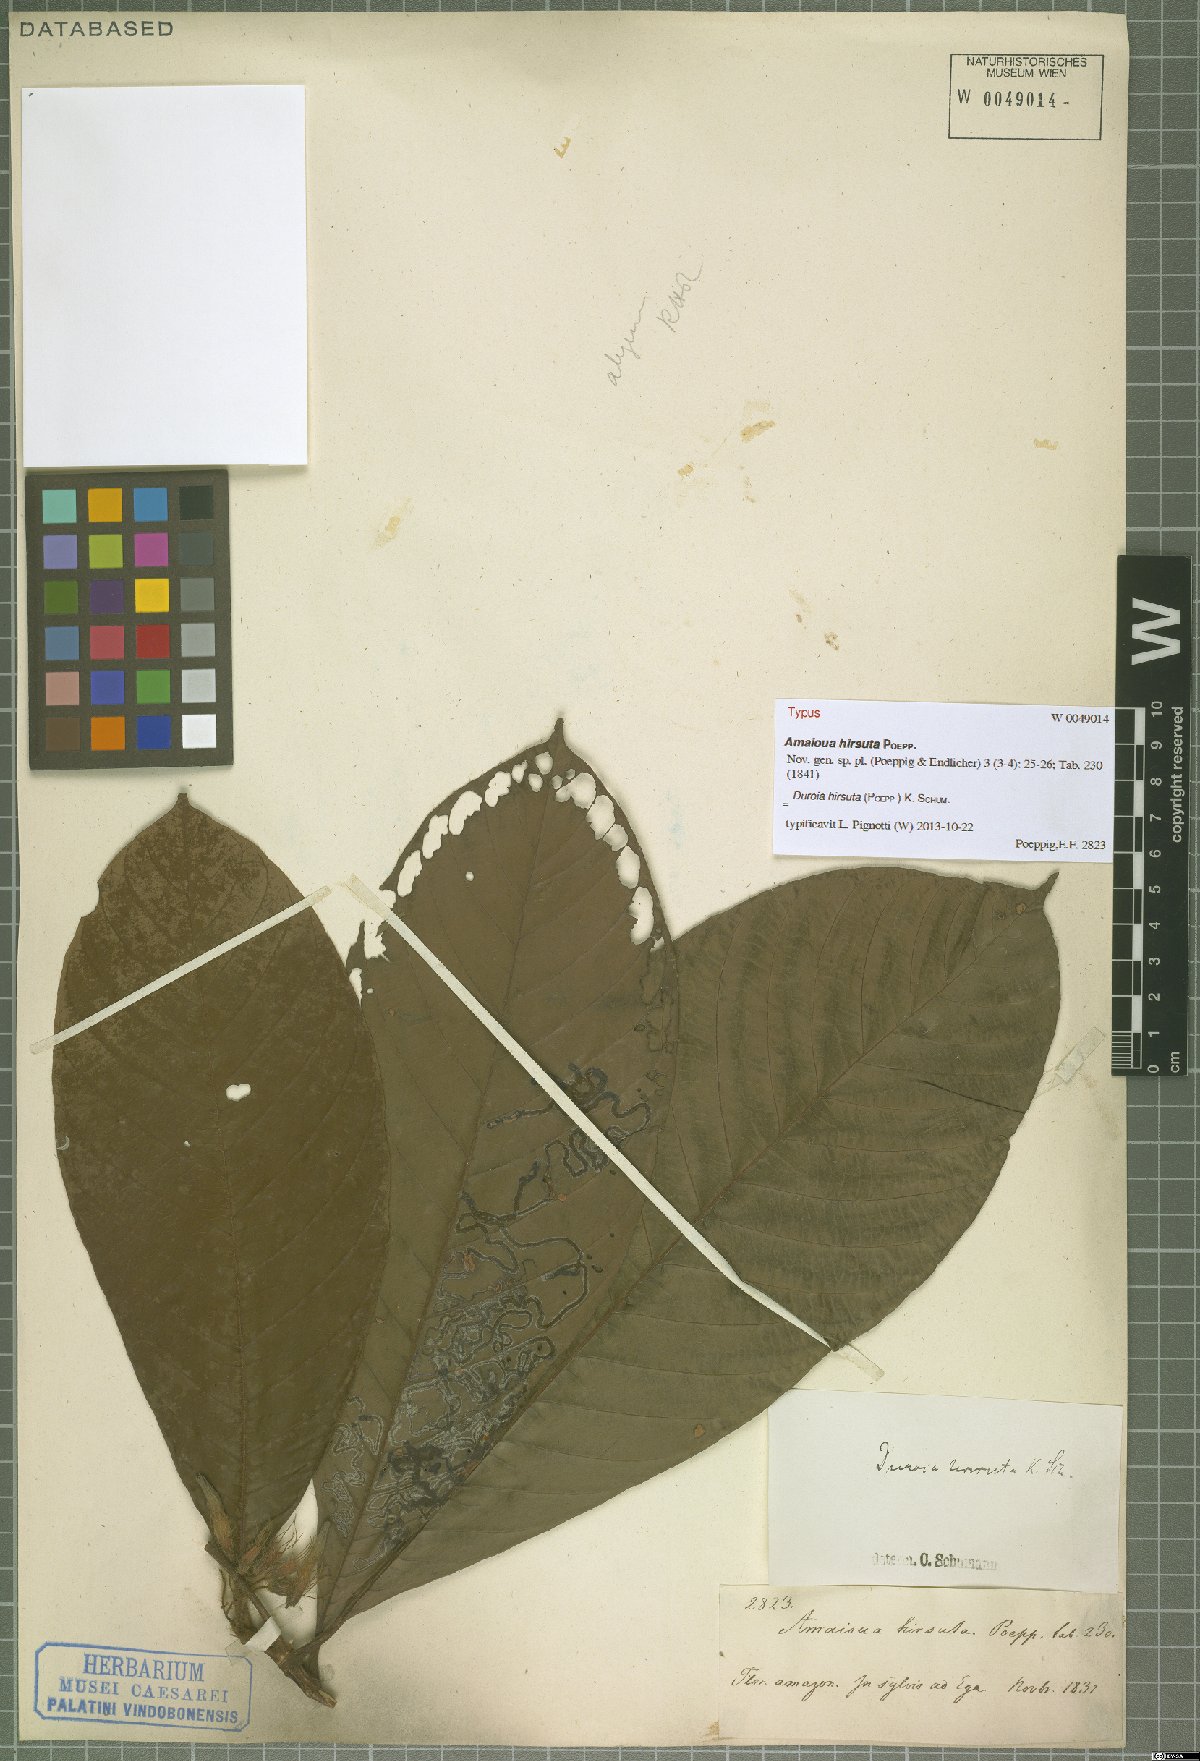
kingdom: Plantae
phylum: Tracheophyta
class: Magnoliopsida
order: Gentianales
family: Rubiaceae
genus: Duroia
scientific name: Duroia hirsuta
